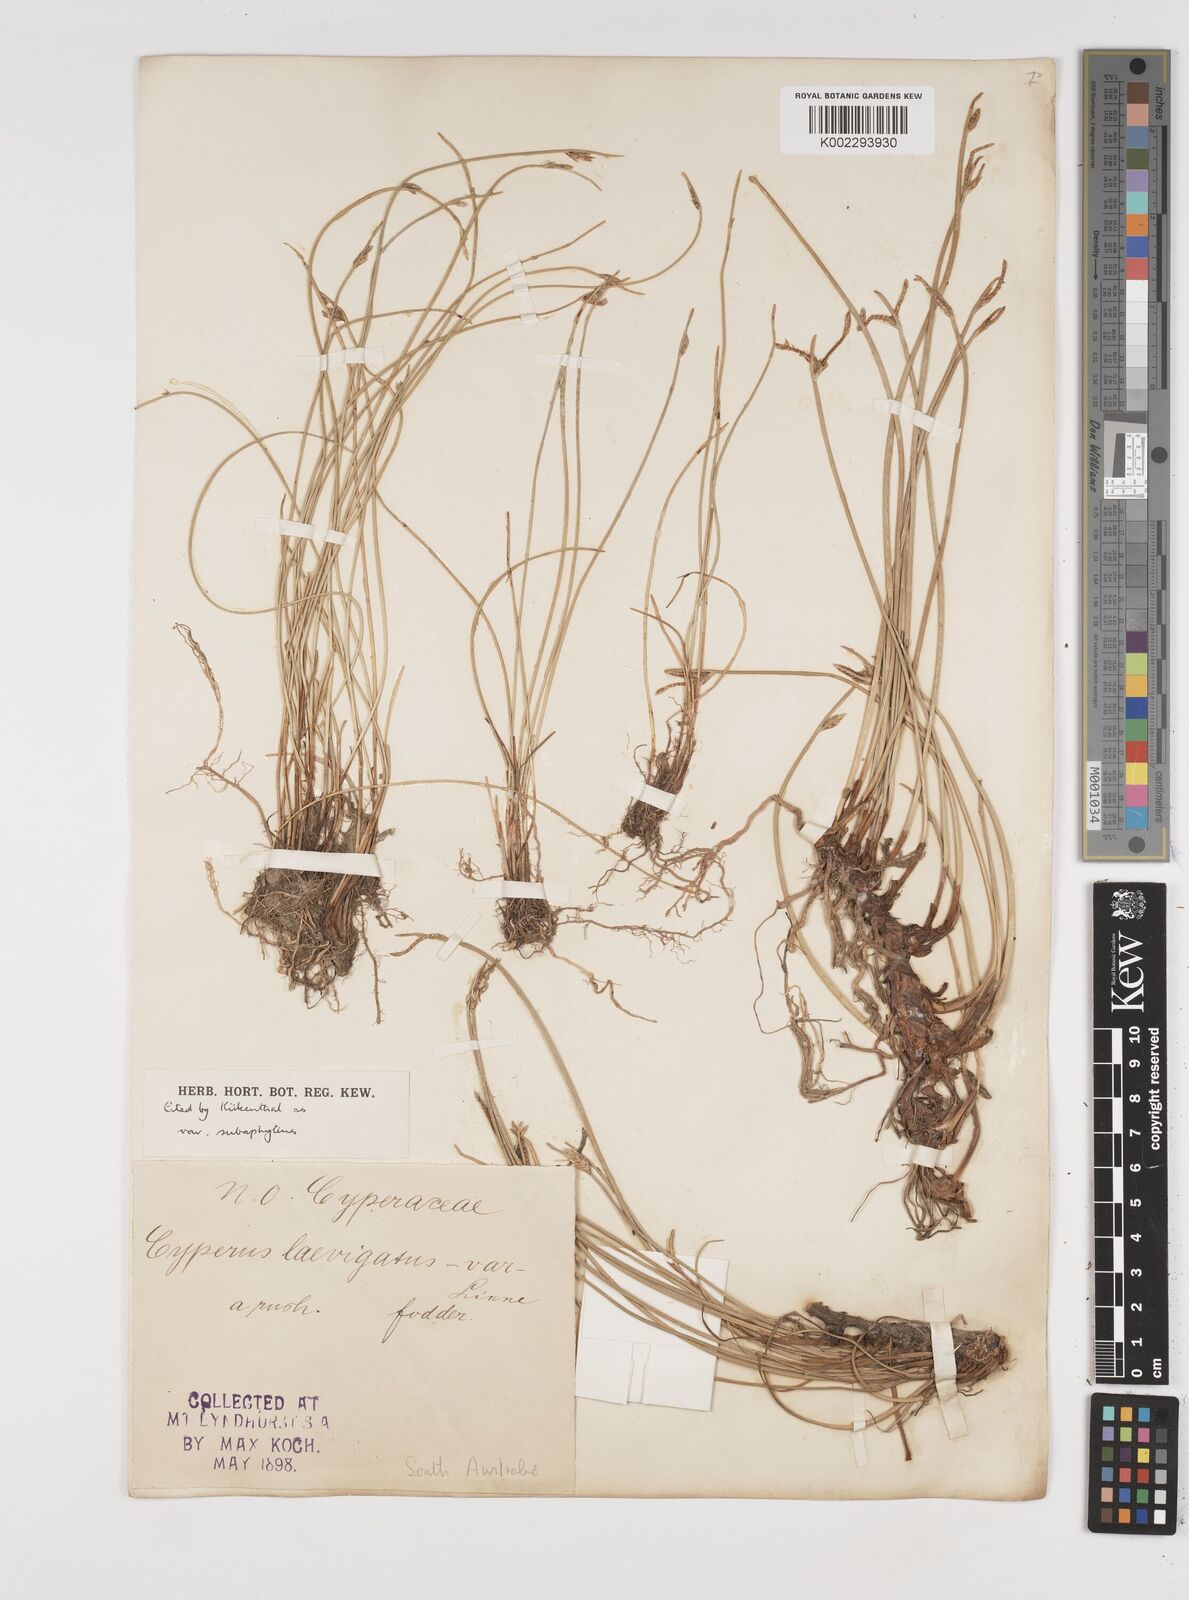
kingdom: Plantae
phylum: Tracheophyta
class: Liliopsida
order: Poales
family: Cyperaceae
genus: Cyperus
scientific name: Cyperus laevigatus
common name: Smooth flat sedge
